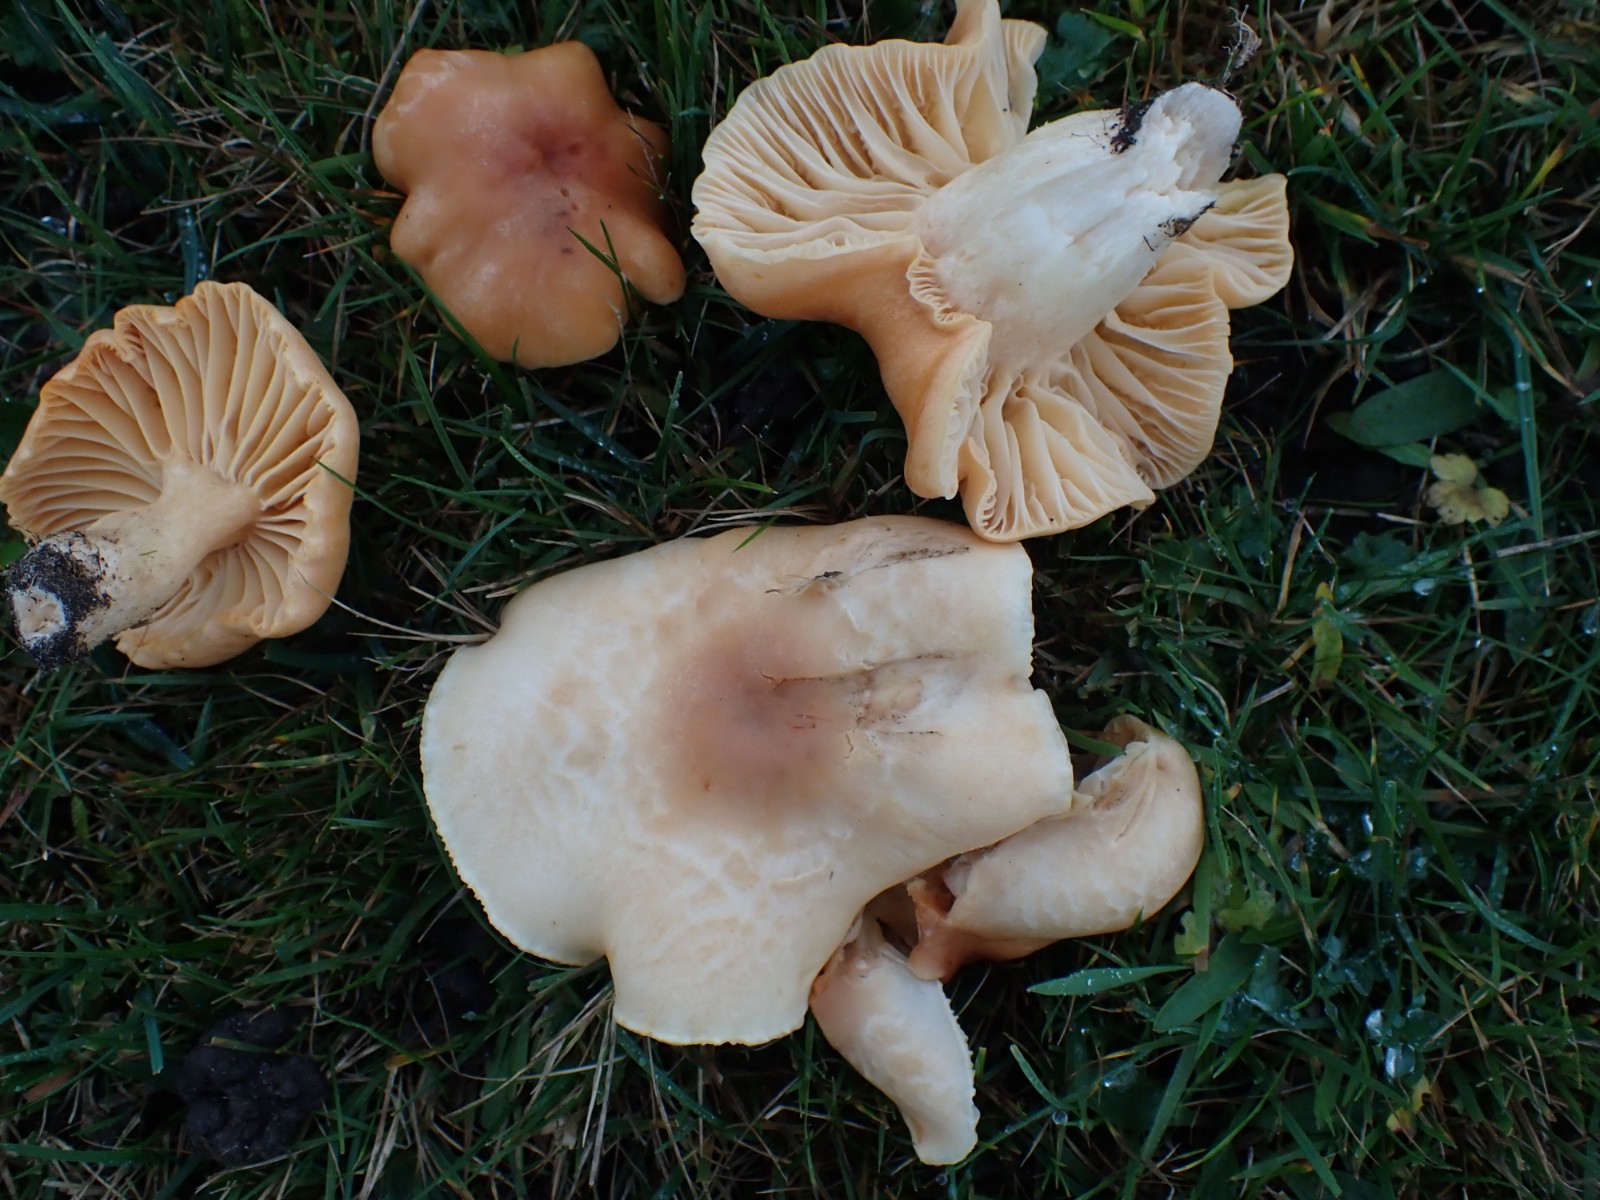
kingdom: Fungi
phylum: Basidiomycota
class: Agaricomycetes
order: Agaricales
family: Hygrophoraceae
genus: Cuphophyllus
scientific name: Cuphophyllus pratensis
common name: eng-vokshat
